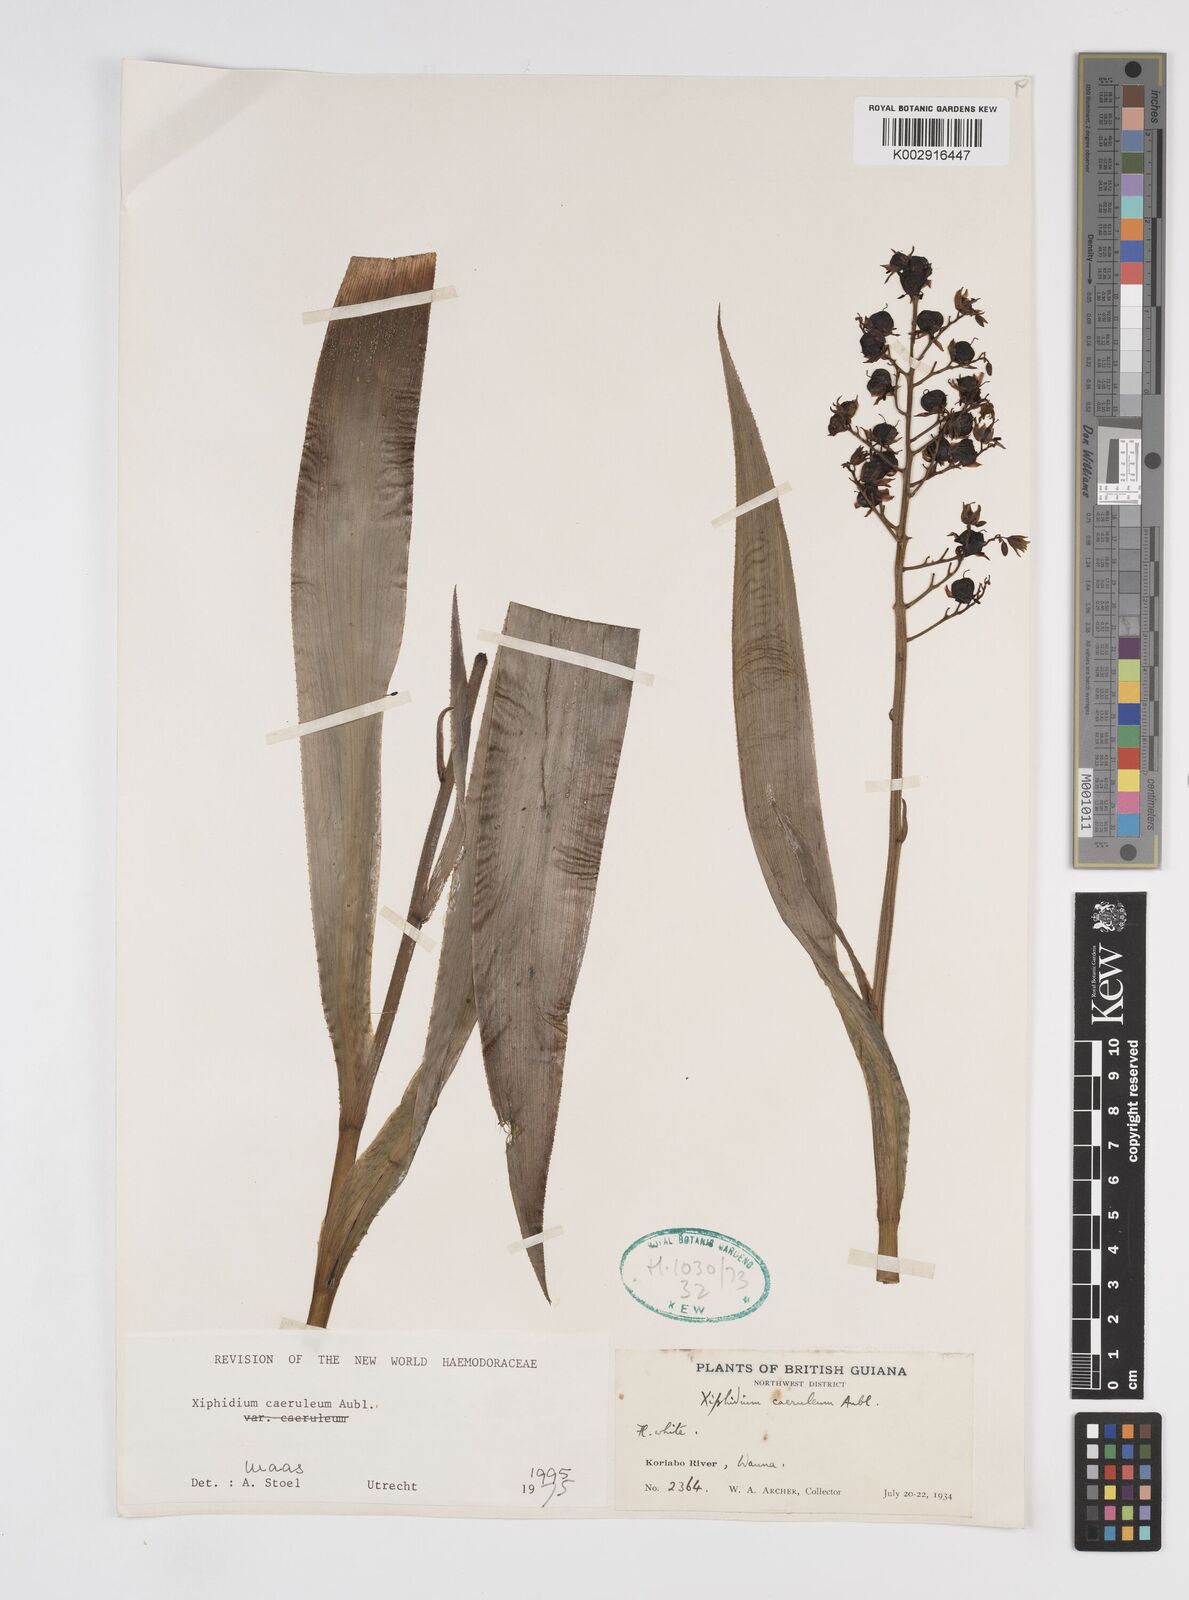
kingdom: Plantae
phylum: Tracheophyta
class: Liliopsida
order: Commelinales
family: Haemodoraceae
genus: Xiphidium
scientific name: Xiphidium caeruleum
